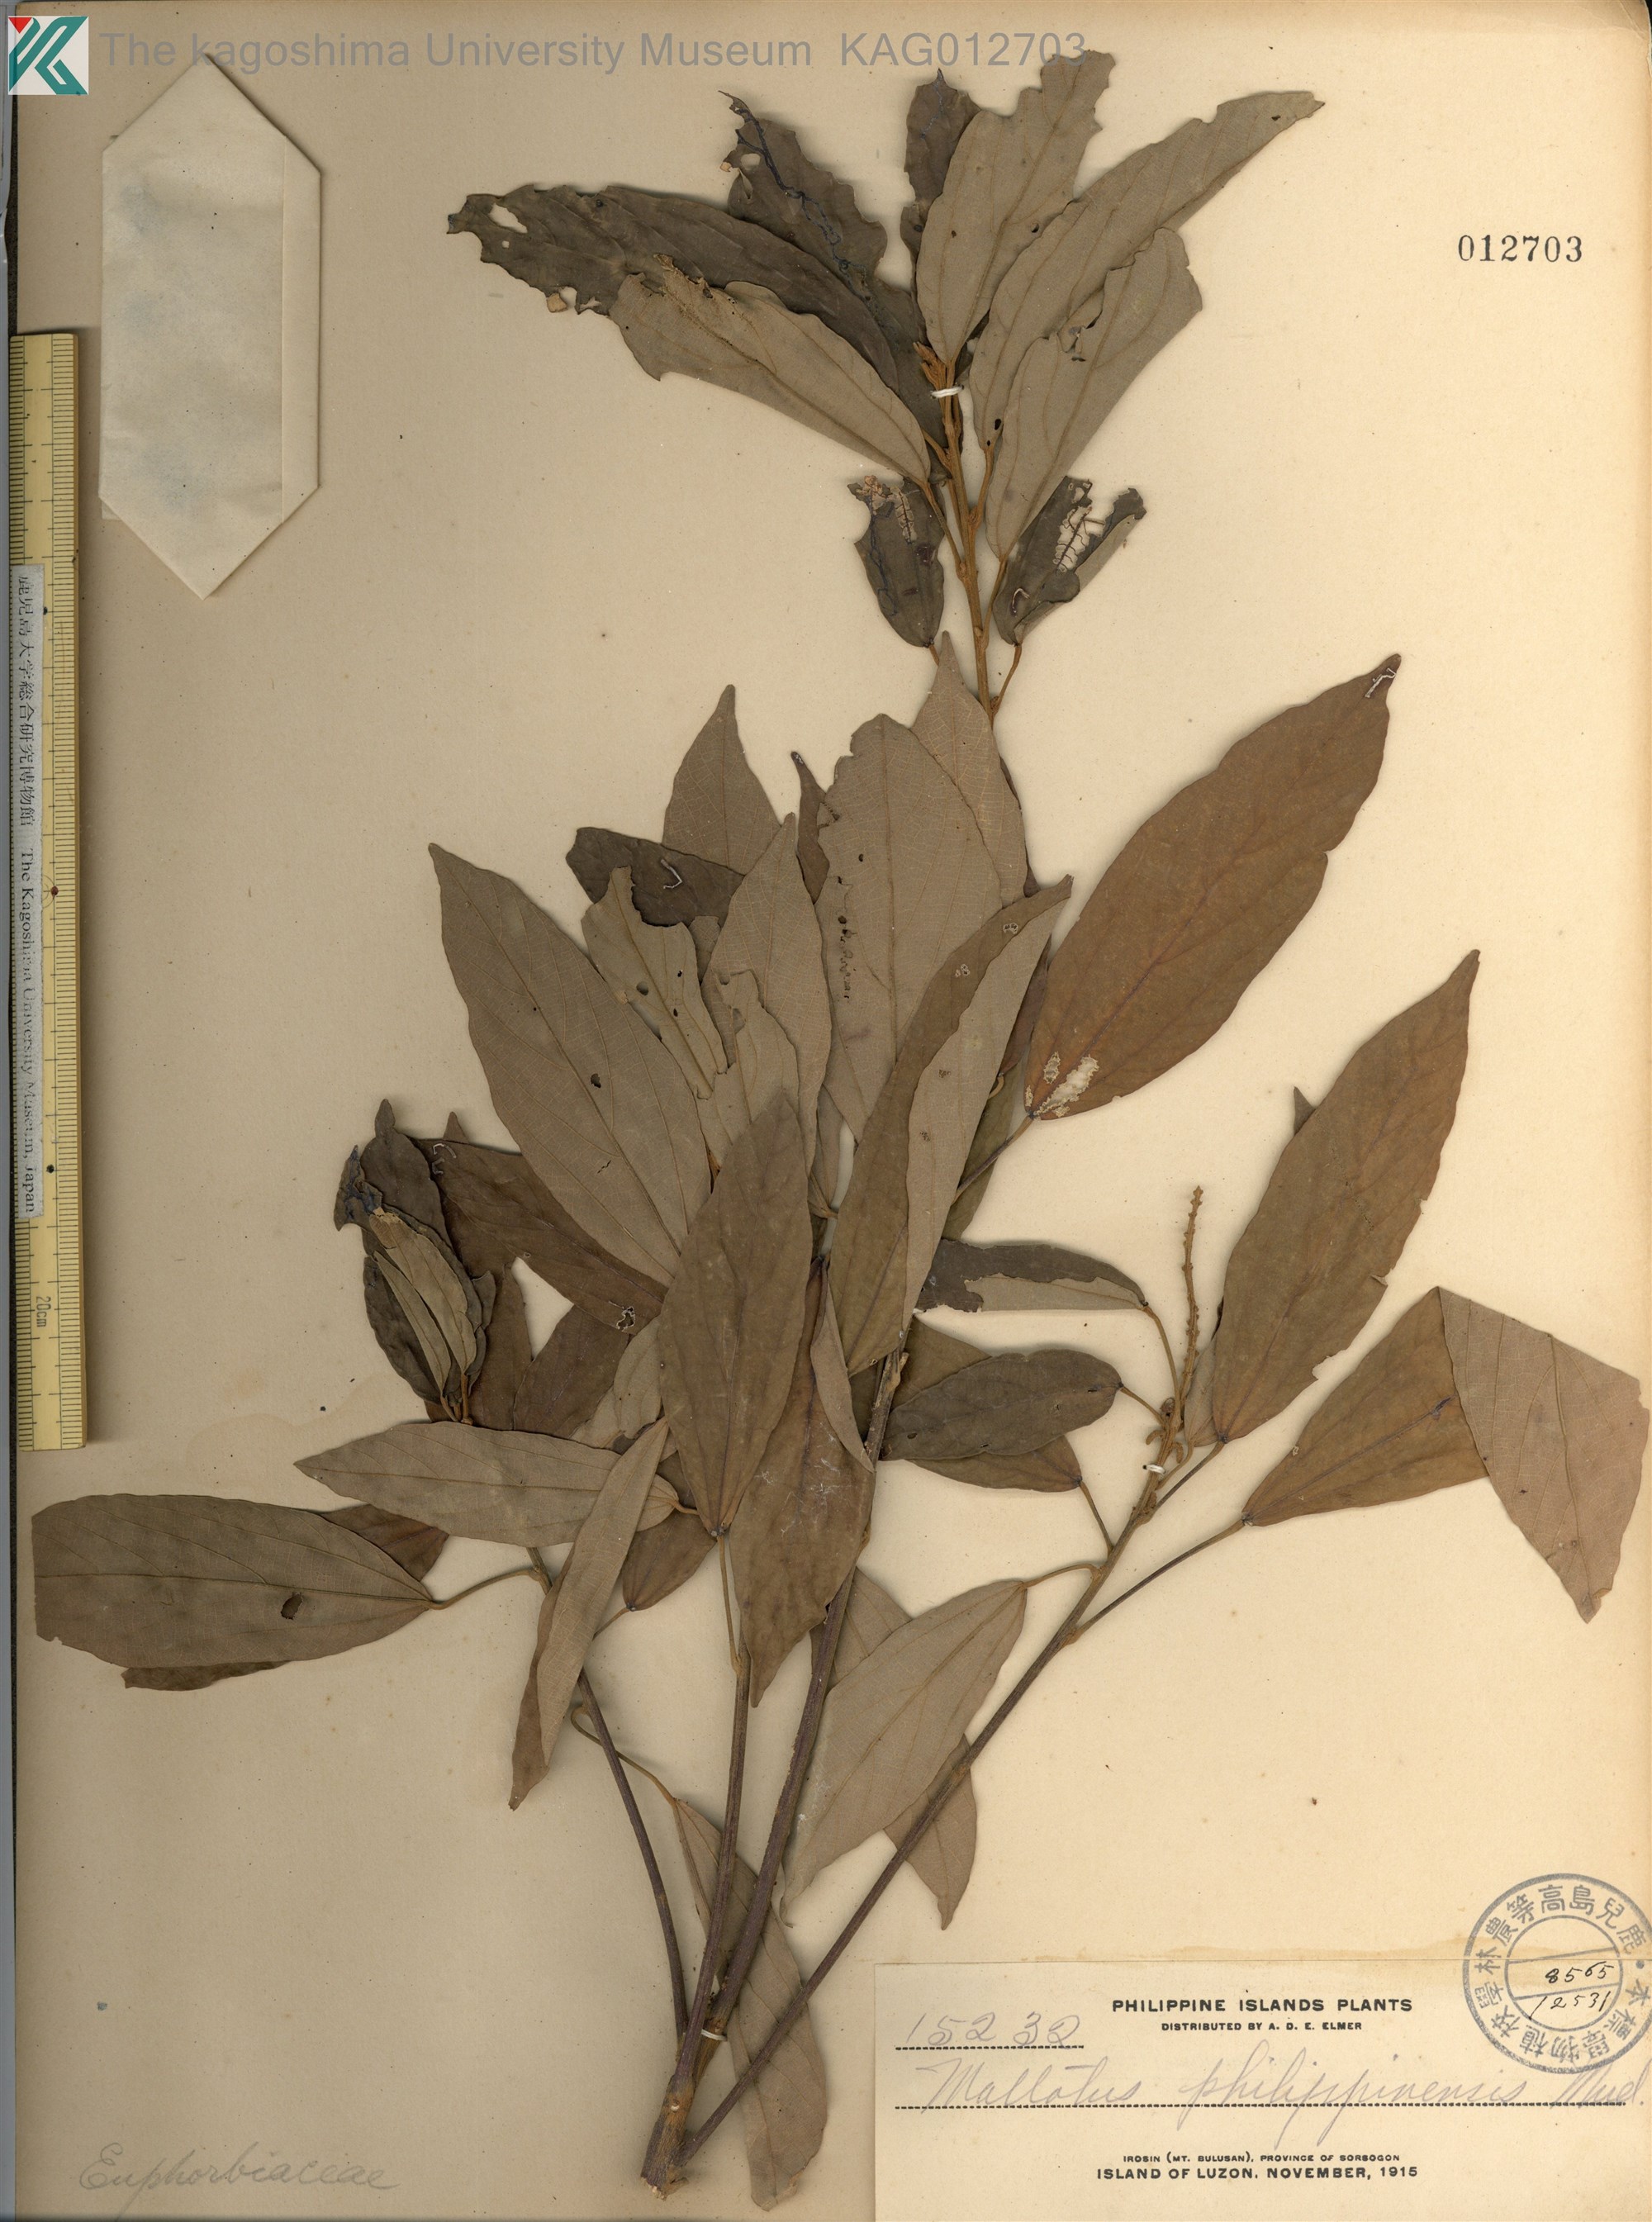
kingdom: Plantae
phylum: Tracheophyta
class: Magnoliopsida
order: Malpighiales
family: Euphorbiaceae
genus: Mallotus
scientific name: Mallotus philippensis
